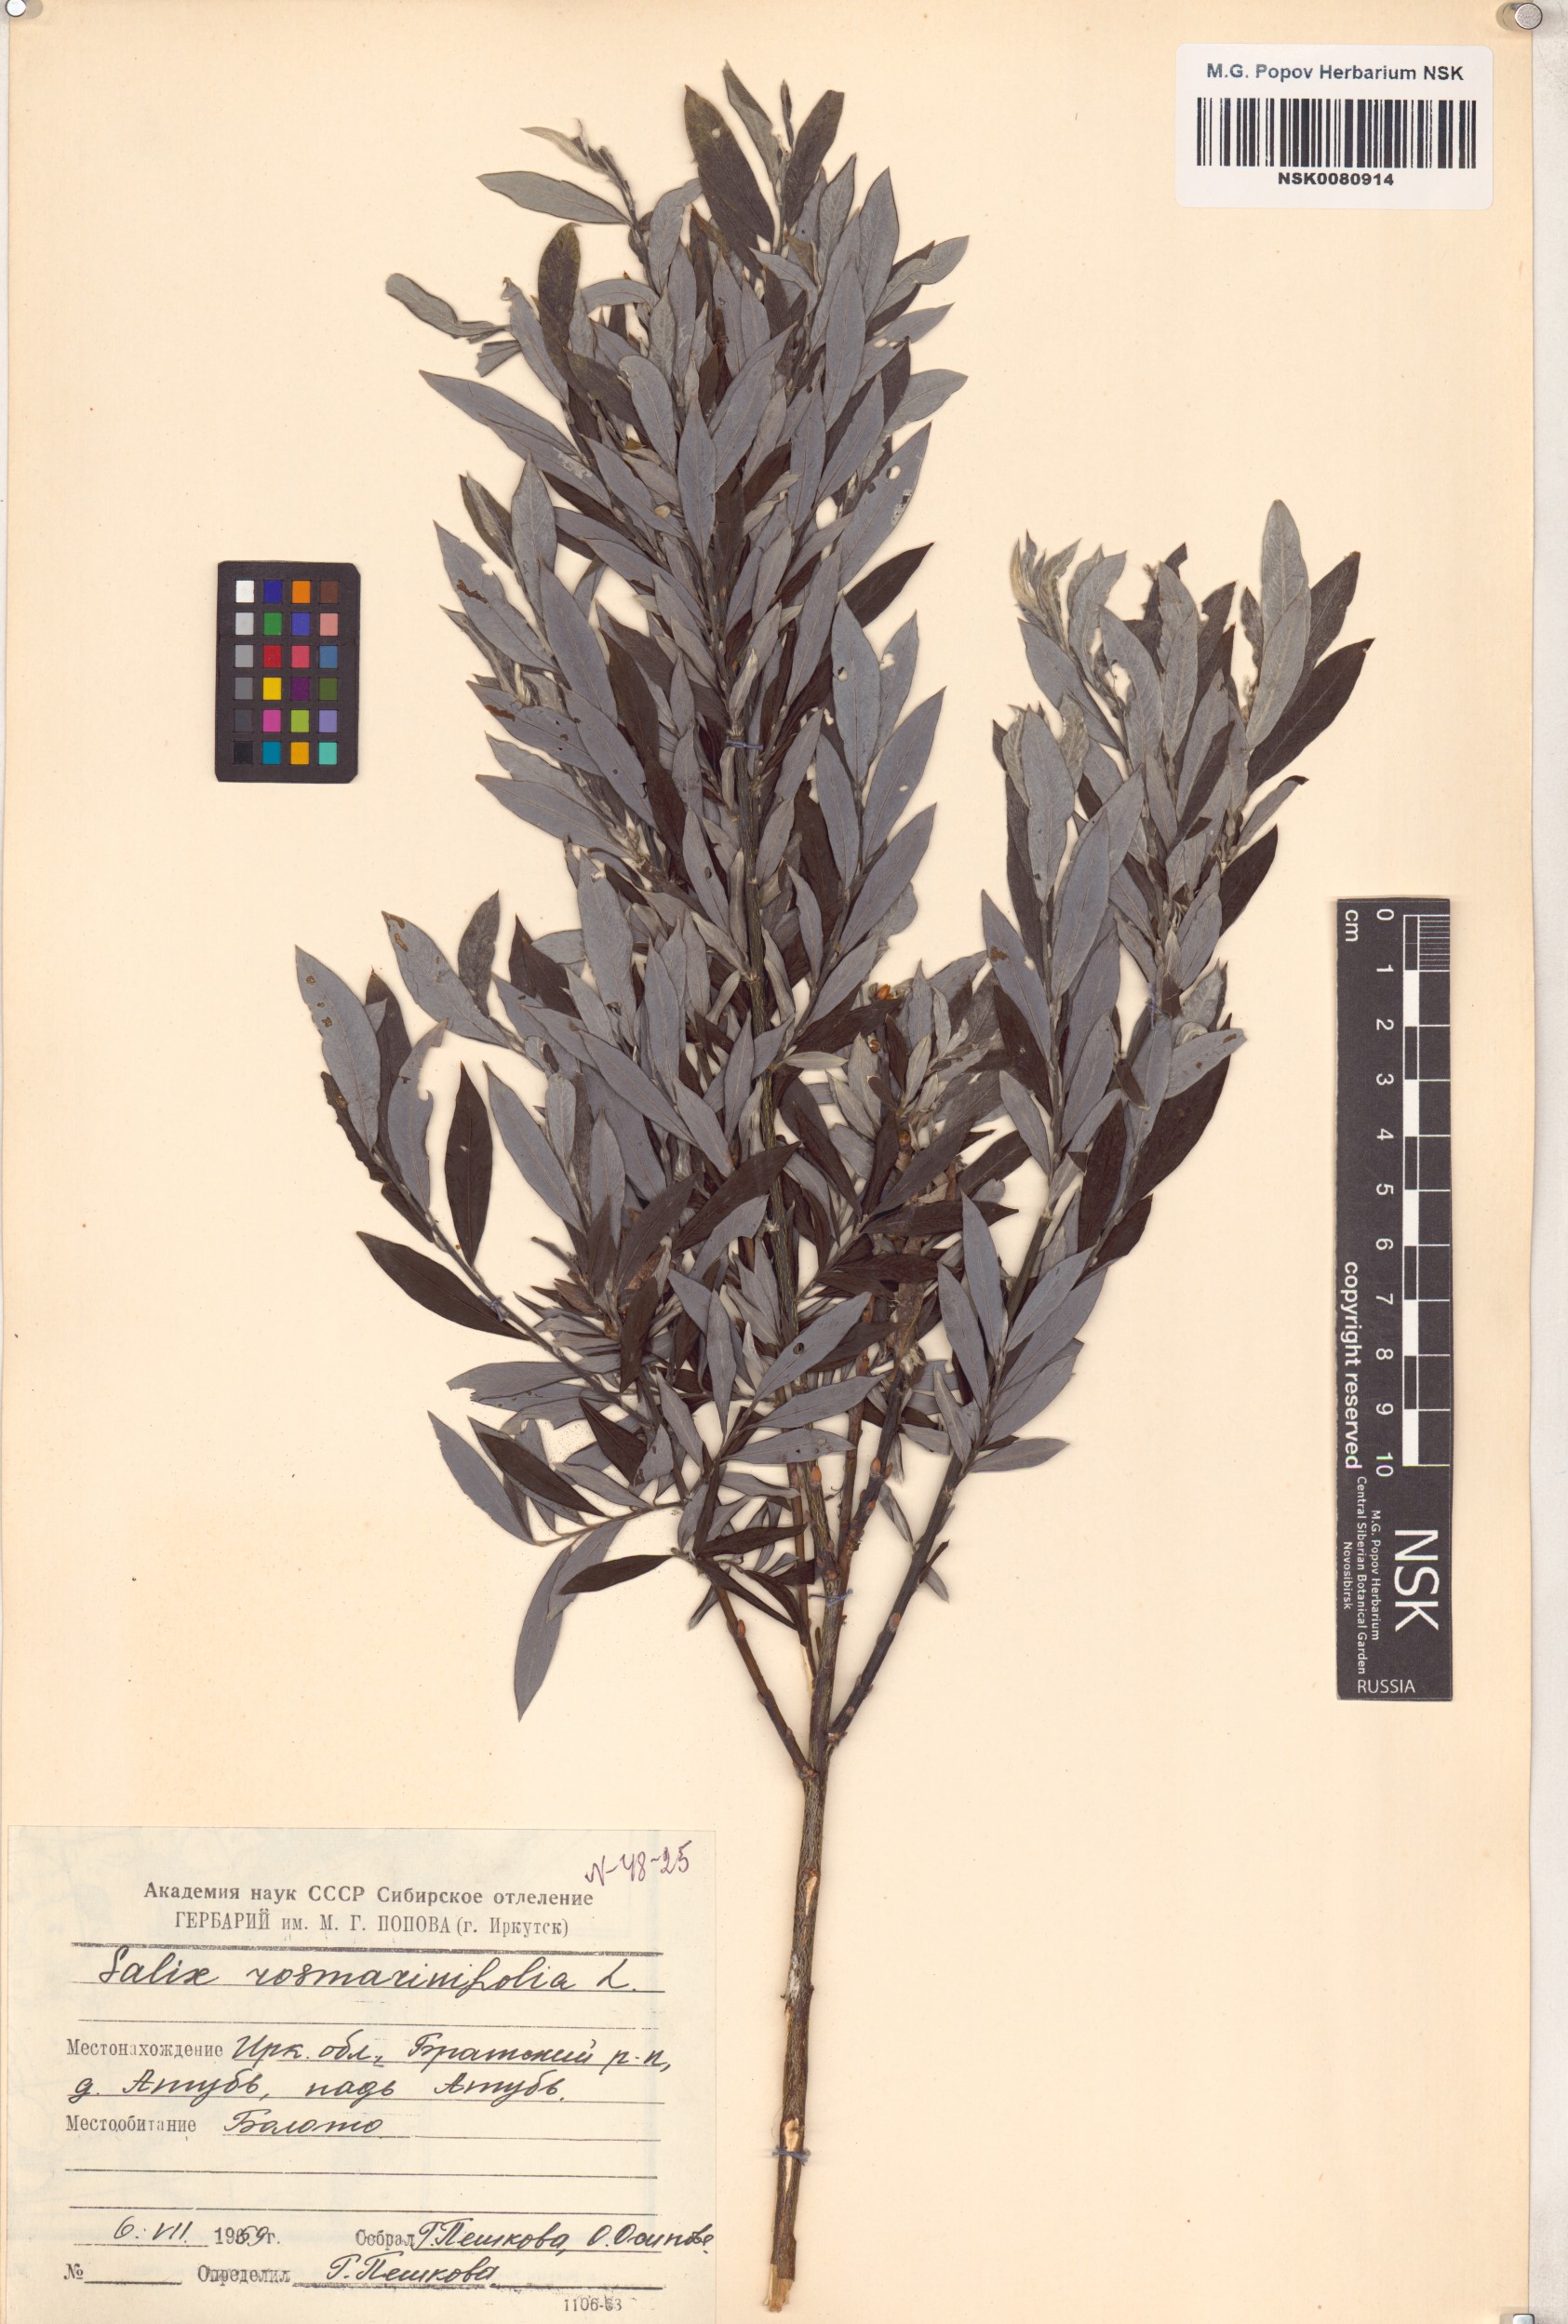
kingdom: Plantae
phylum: Tracheophyta
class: Magnoliopsida
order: Malpighiales
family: Salicaceae
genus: Salix
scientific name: Salix rosmarinifolia
